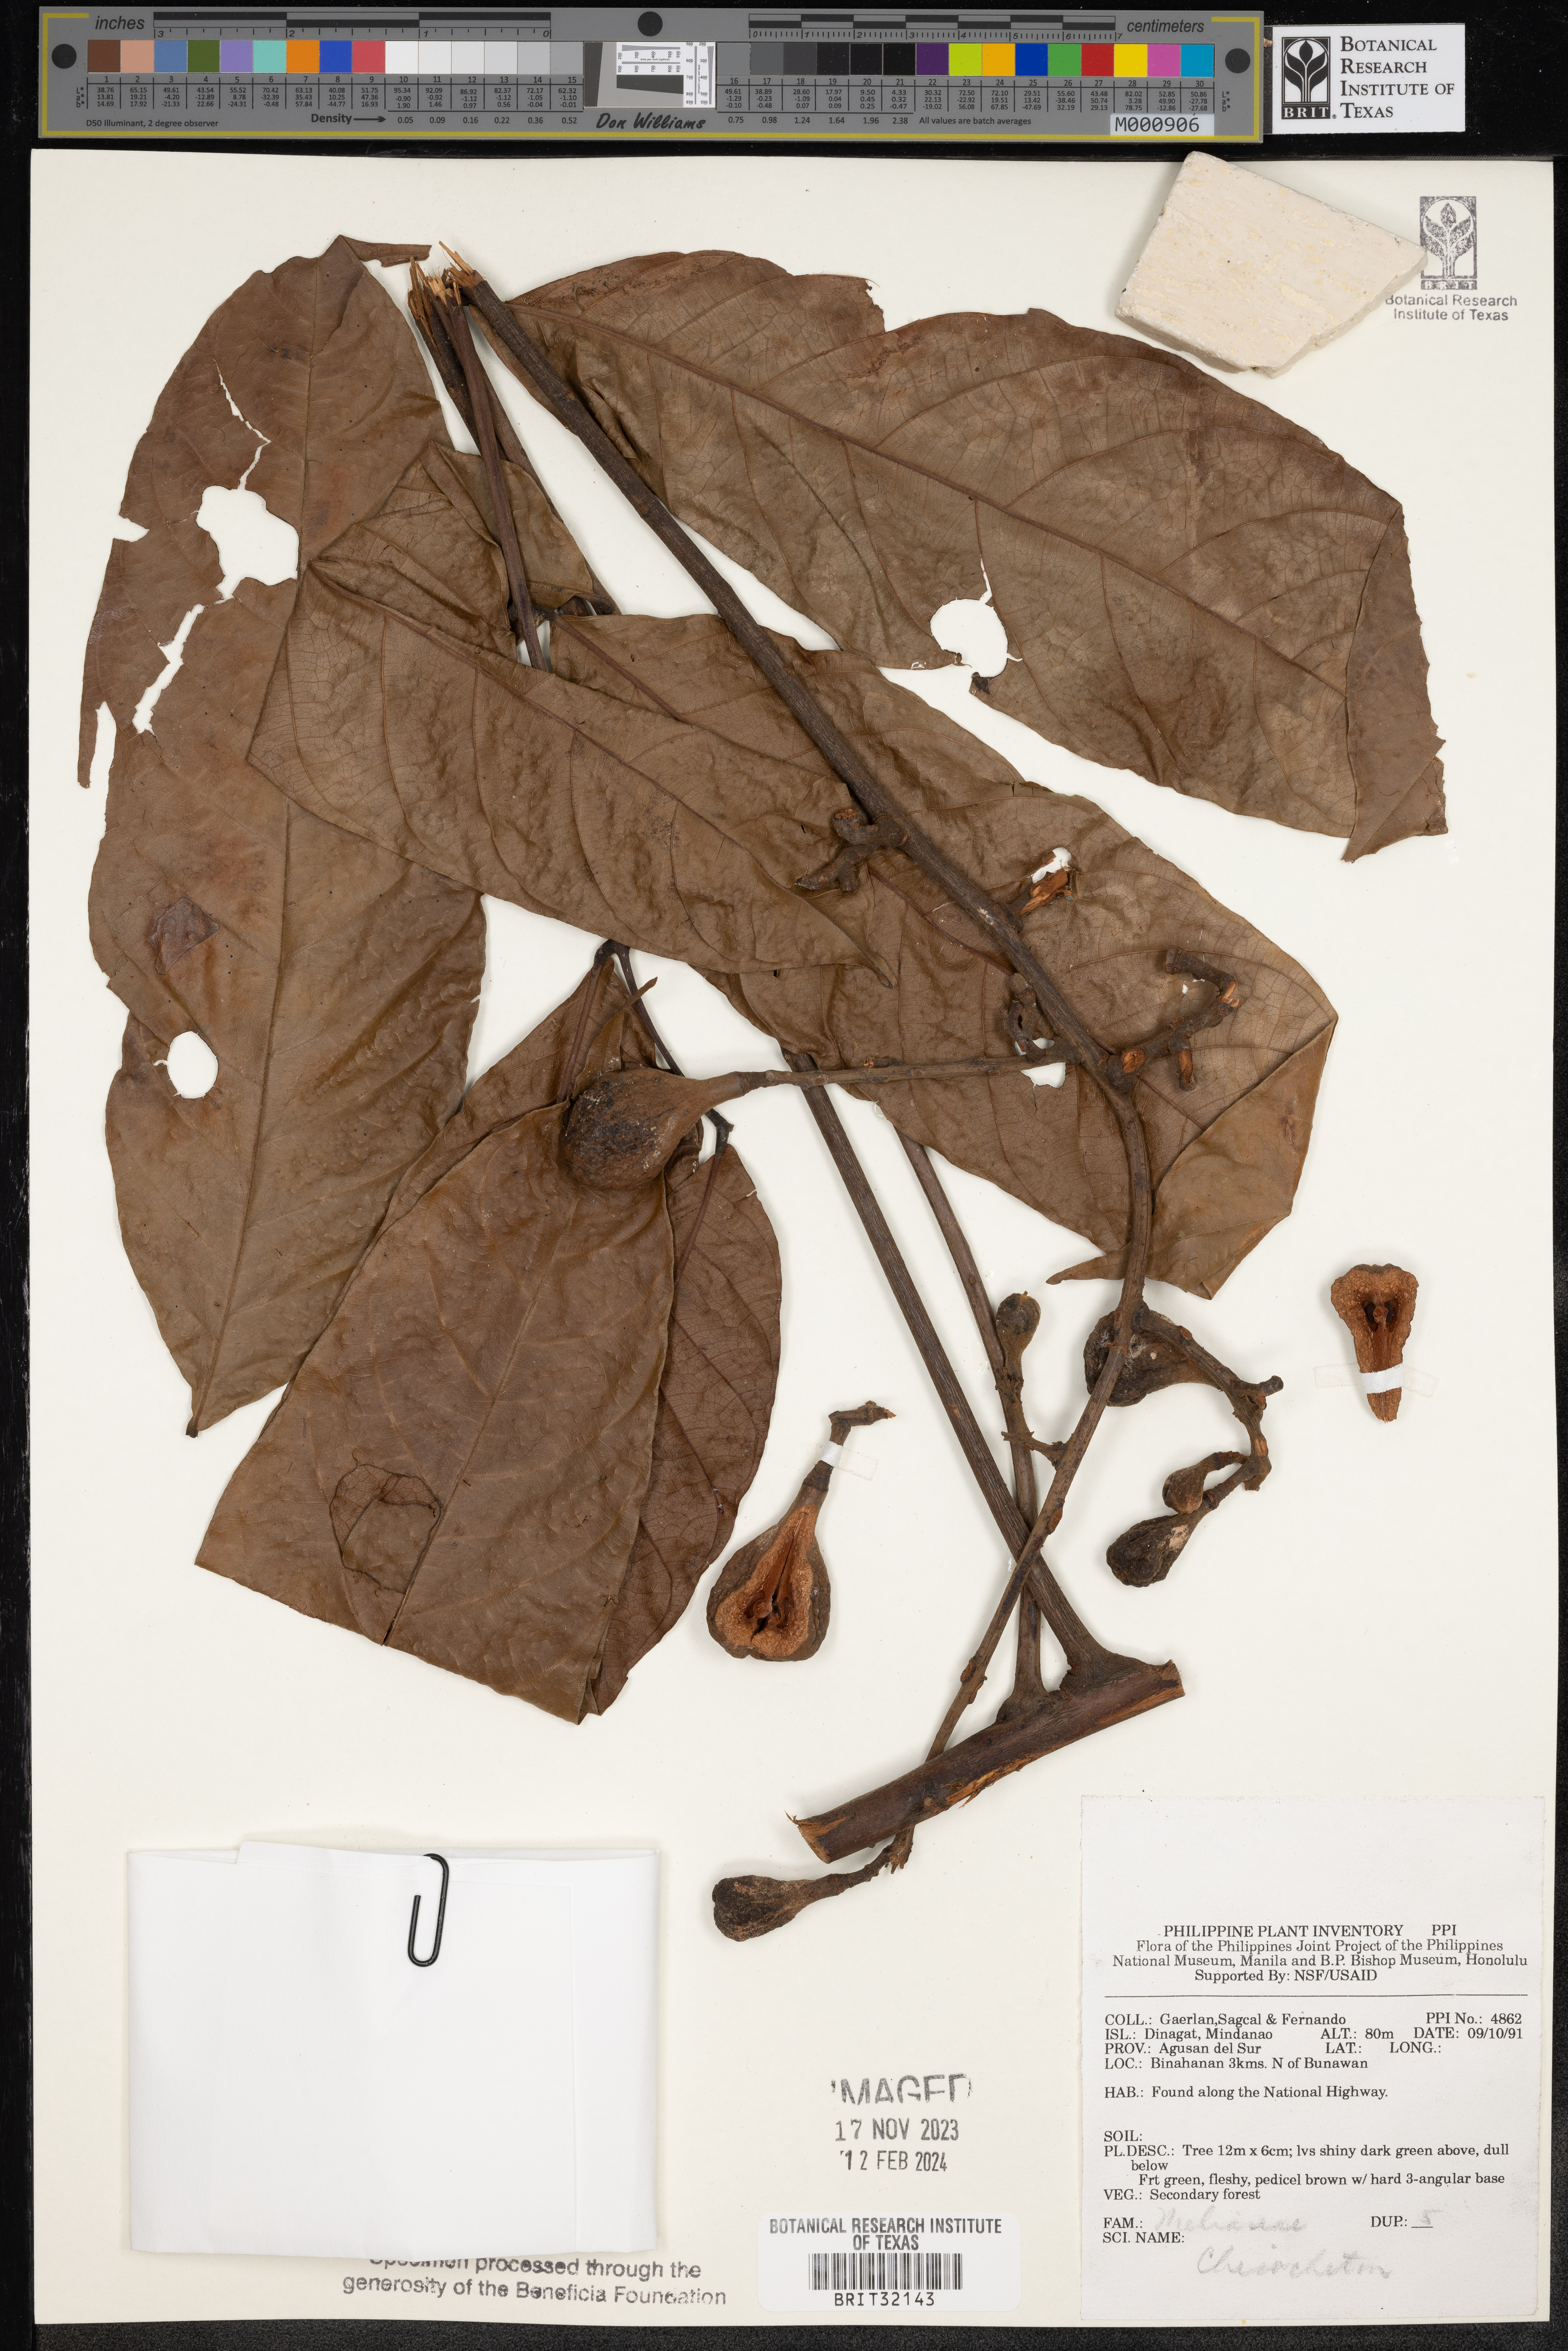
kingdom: Plantae
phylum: Tracheophyta
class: Magnoliopsida
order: Sapindales
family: Meliaceae
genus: Chisocheton
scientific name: Chisocheton
